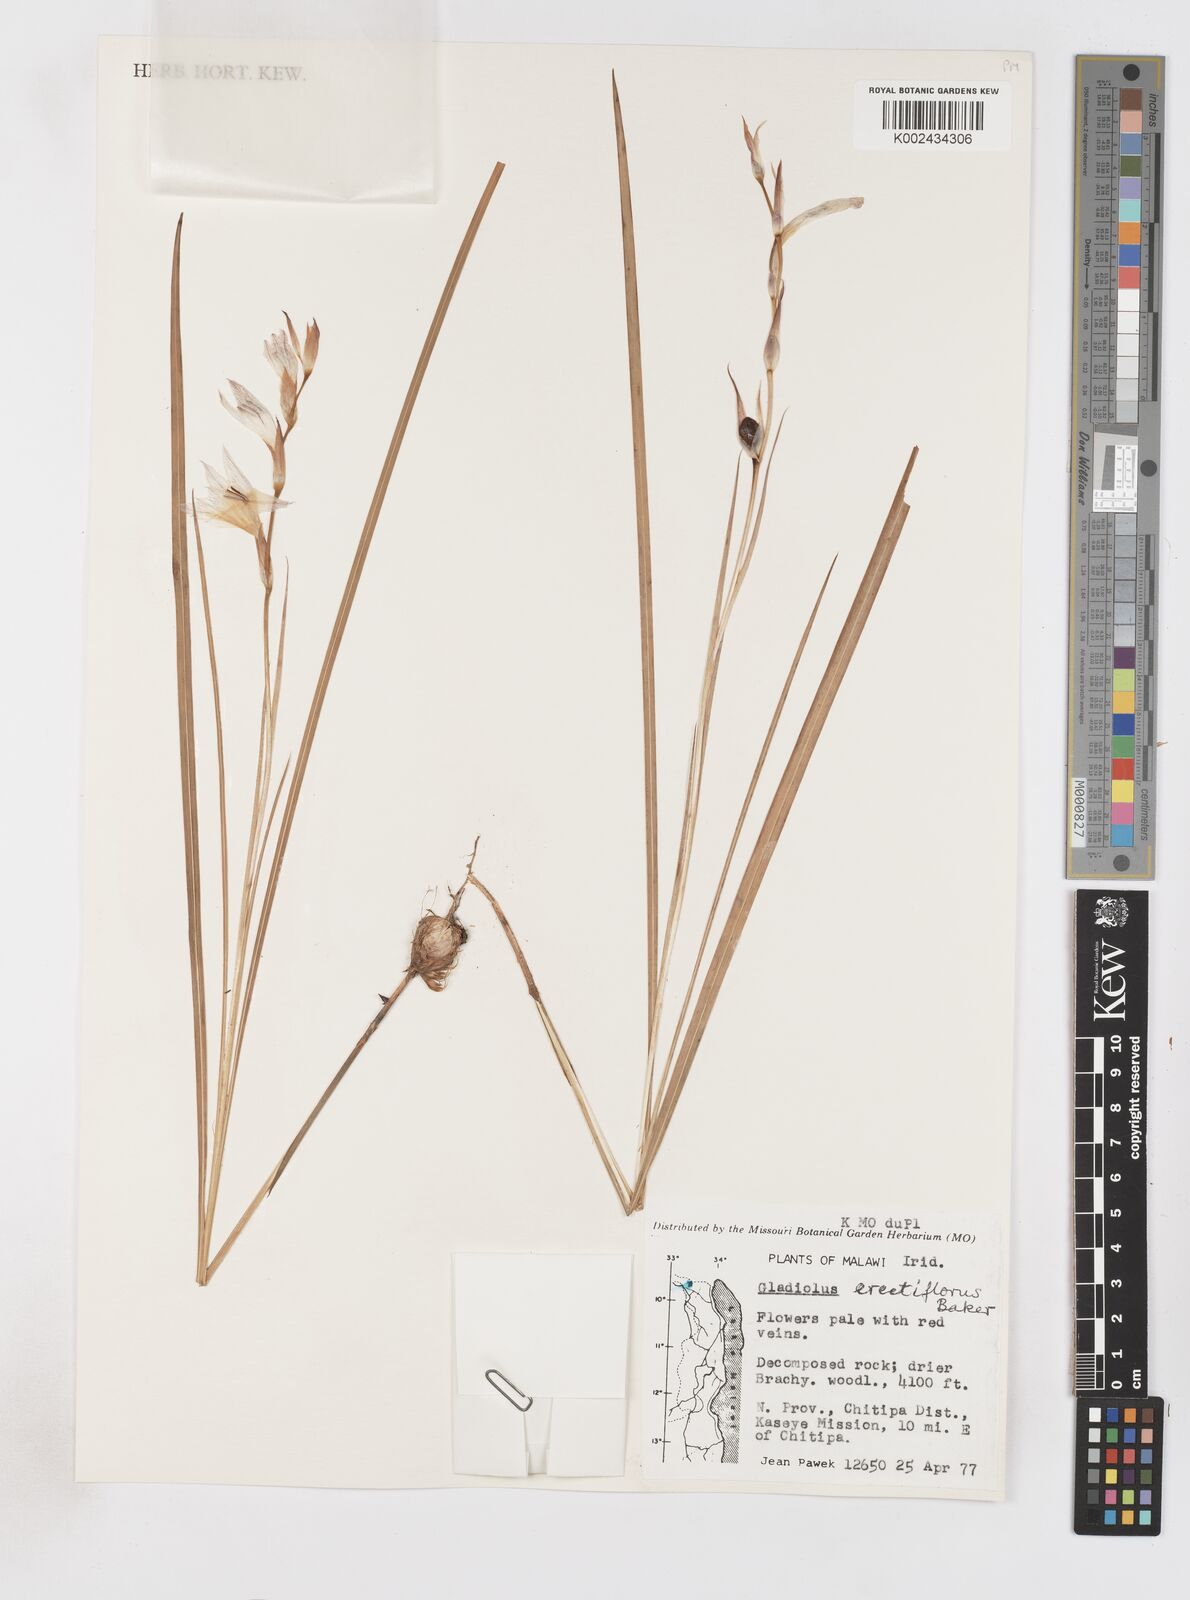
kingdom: Plantae
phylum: Tracheophyta
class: Liliopsida
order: Asparagales
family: Iridaceae
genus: Gladiolus
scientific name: Gladiolus erectiflorus
